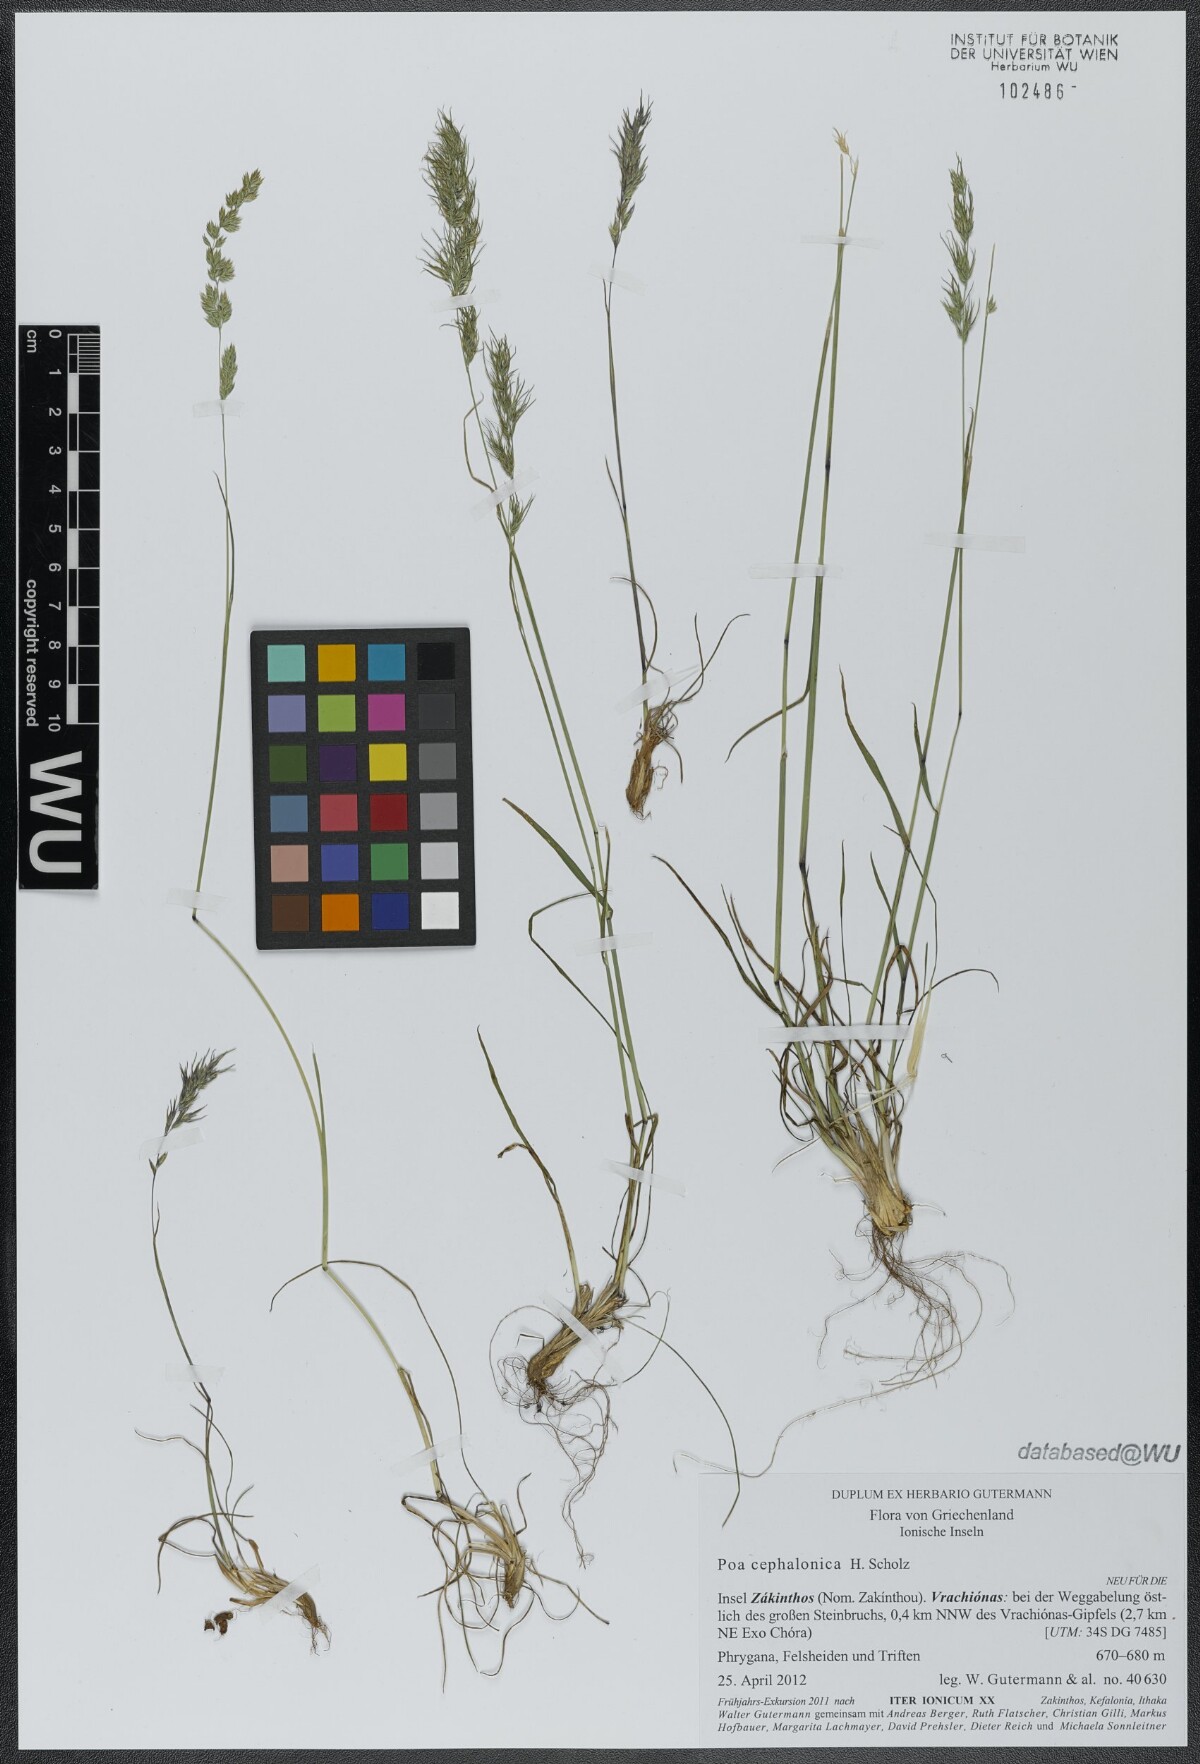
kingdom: Plantae
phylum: Tracheophyta
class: Liliopsida
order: Poales
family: Poaceae
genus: Poa
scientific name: Poa bulbosa
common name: Bulbous bluegrass
